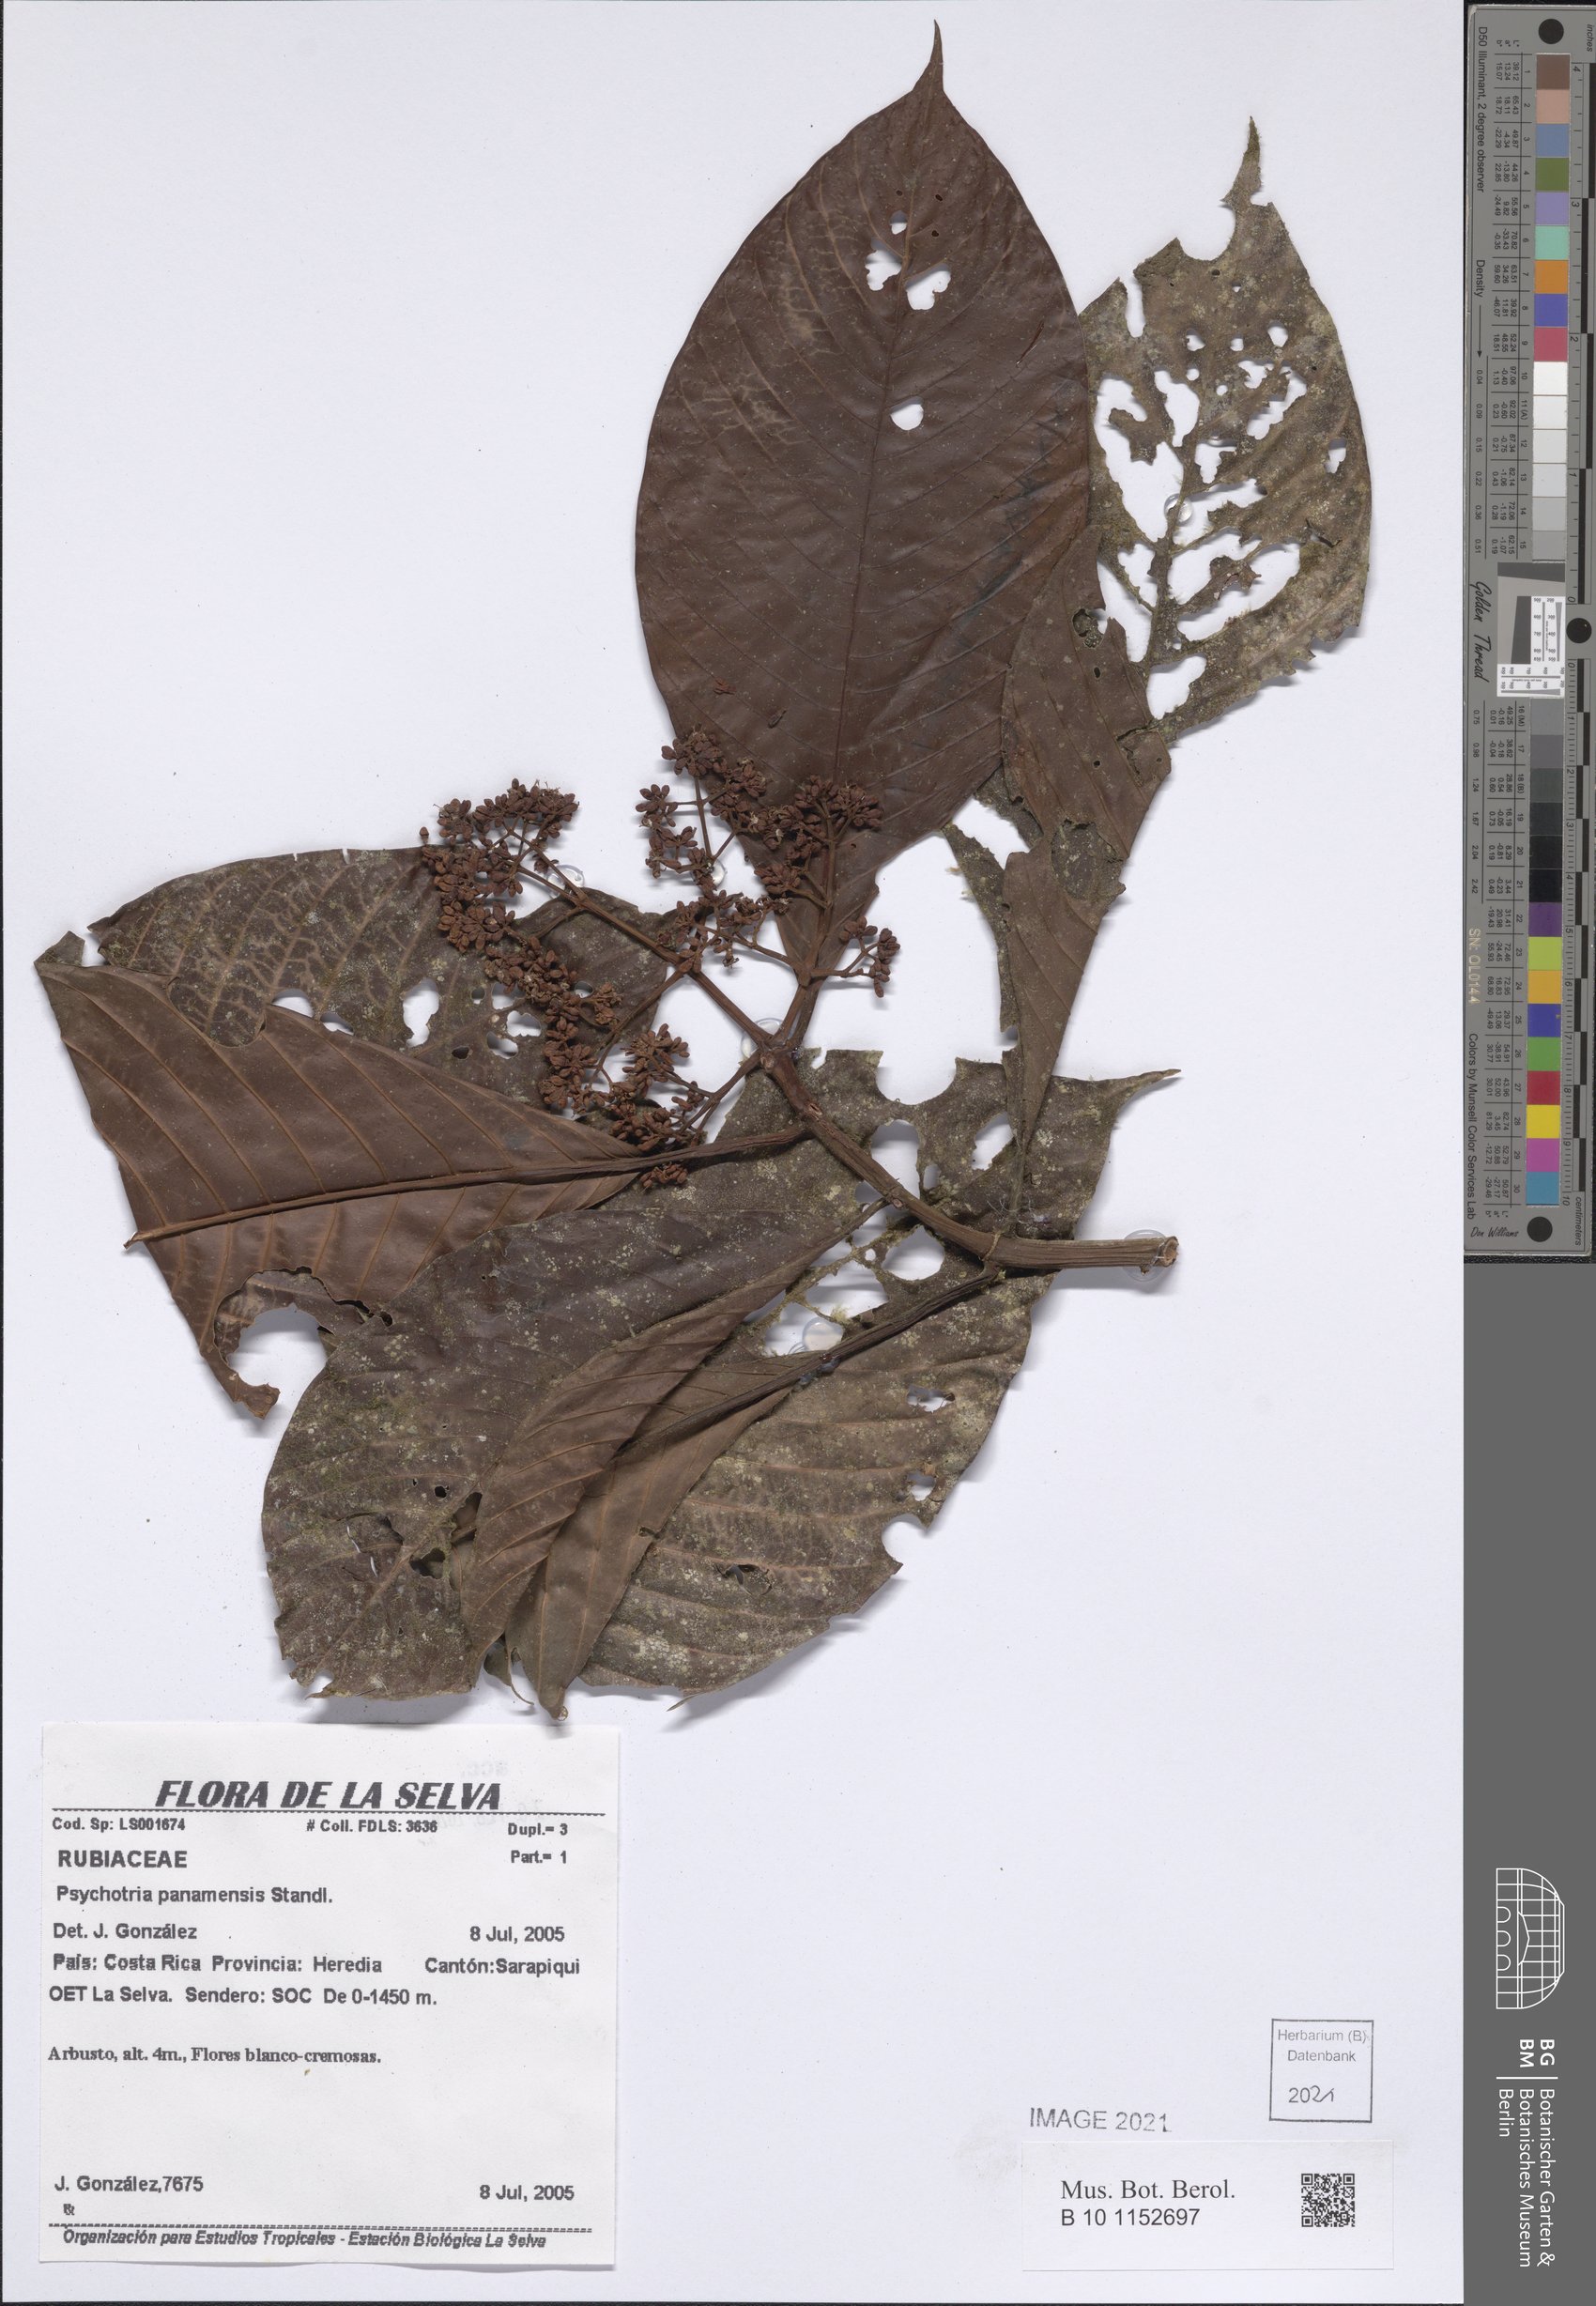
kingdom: Plantae
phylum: Tracheophyta
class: Magnoliopsida
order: Gentianales
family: Rubiaceae
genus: Psychotria
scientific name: Psychotria panamensis
